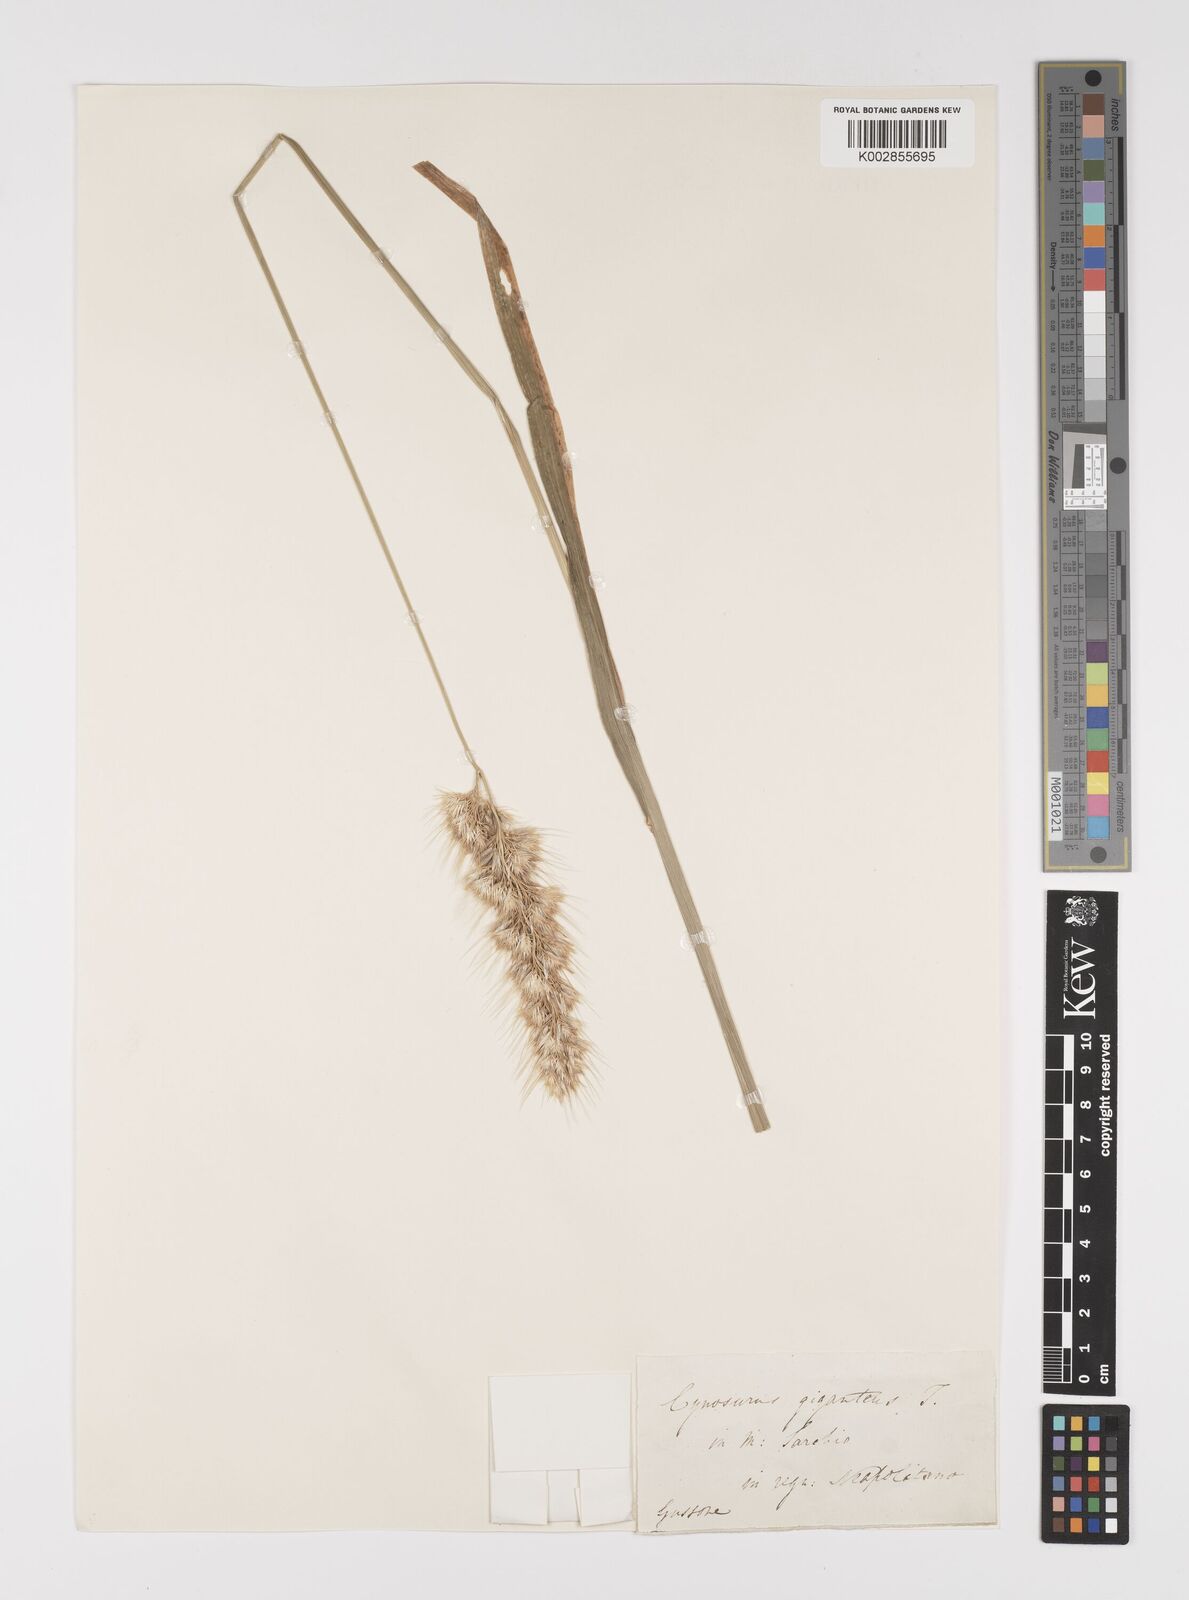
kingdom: Plantae
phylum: Tracheophyta
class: Liliopsida
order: Poales
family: Poaceae
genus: Cynosurus
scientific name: Cynosurus echinatus
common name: Rough dog's-tail
